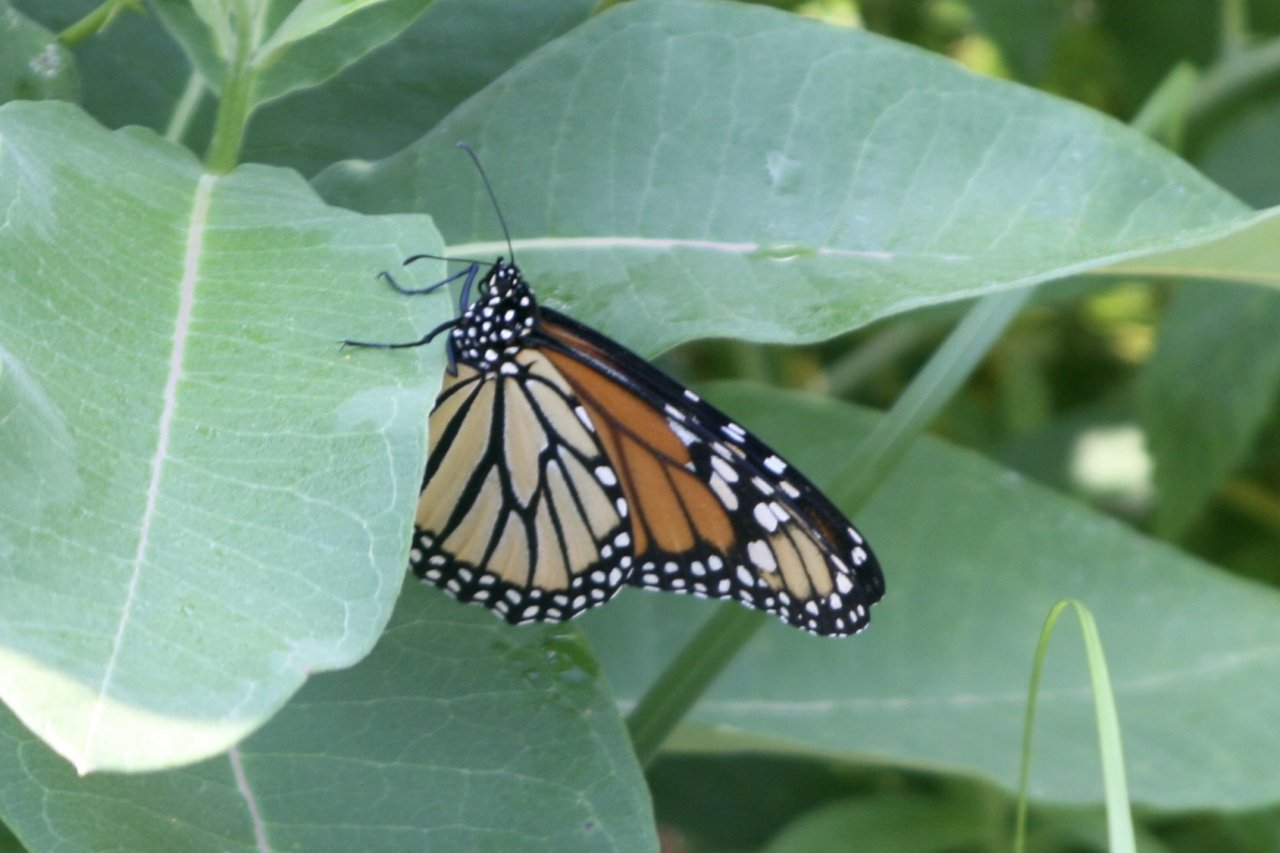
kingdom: Animalia
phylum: Arthropoda
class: Insecta
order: Lepidoptera
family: Nymphalidae
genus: Danaus
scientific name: Danaus plexippus
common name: Monarch
